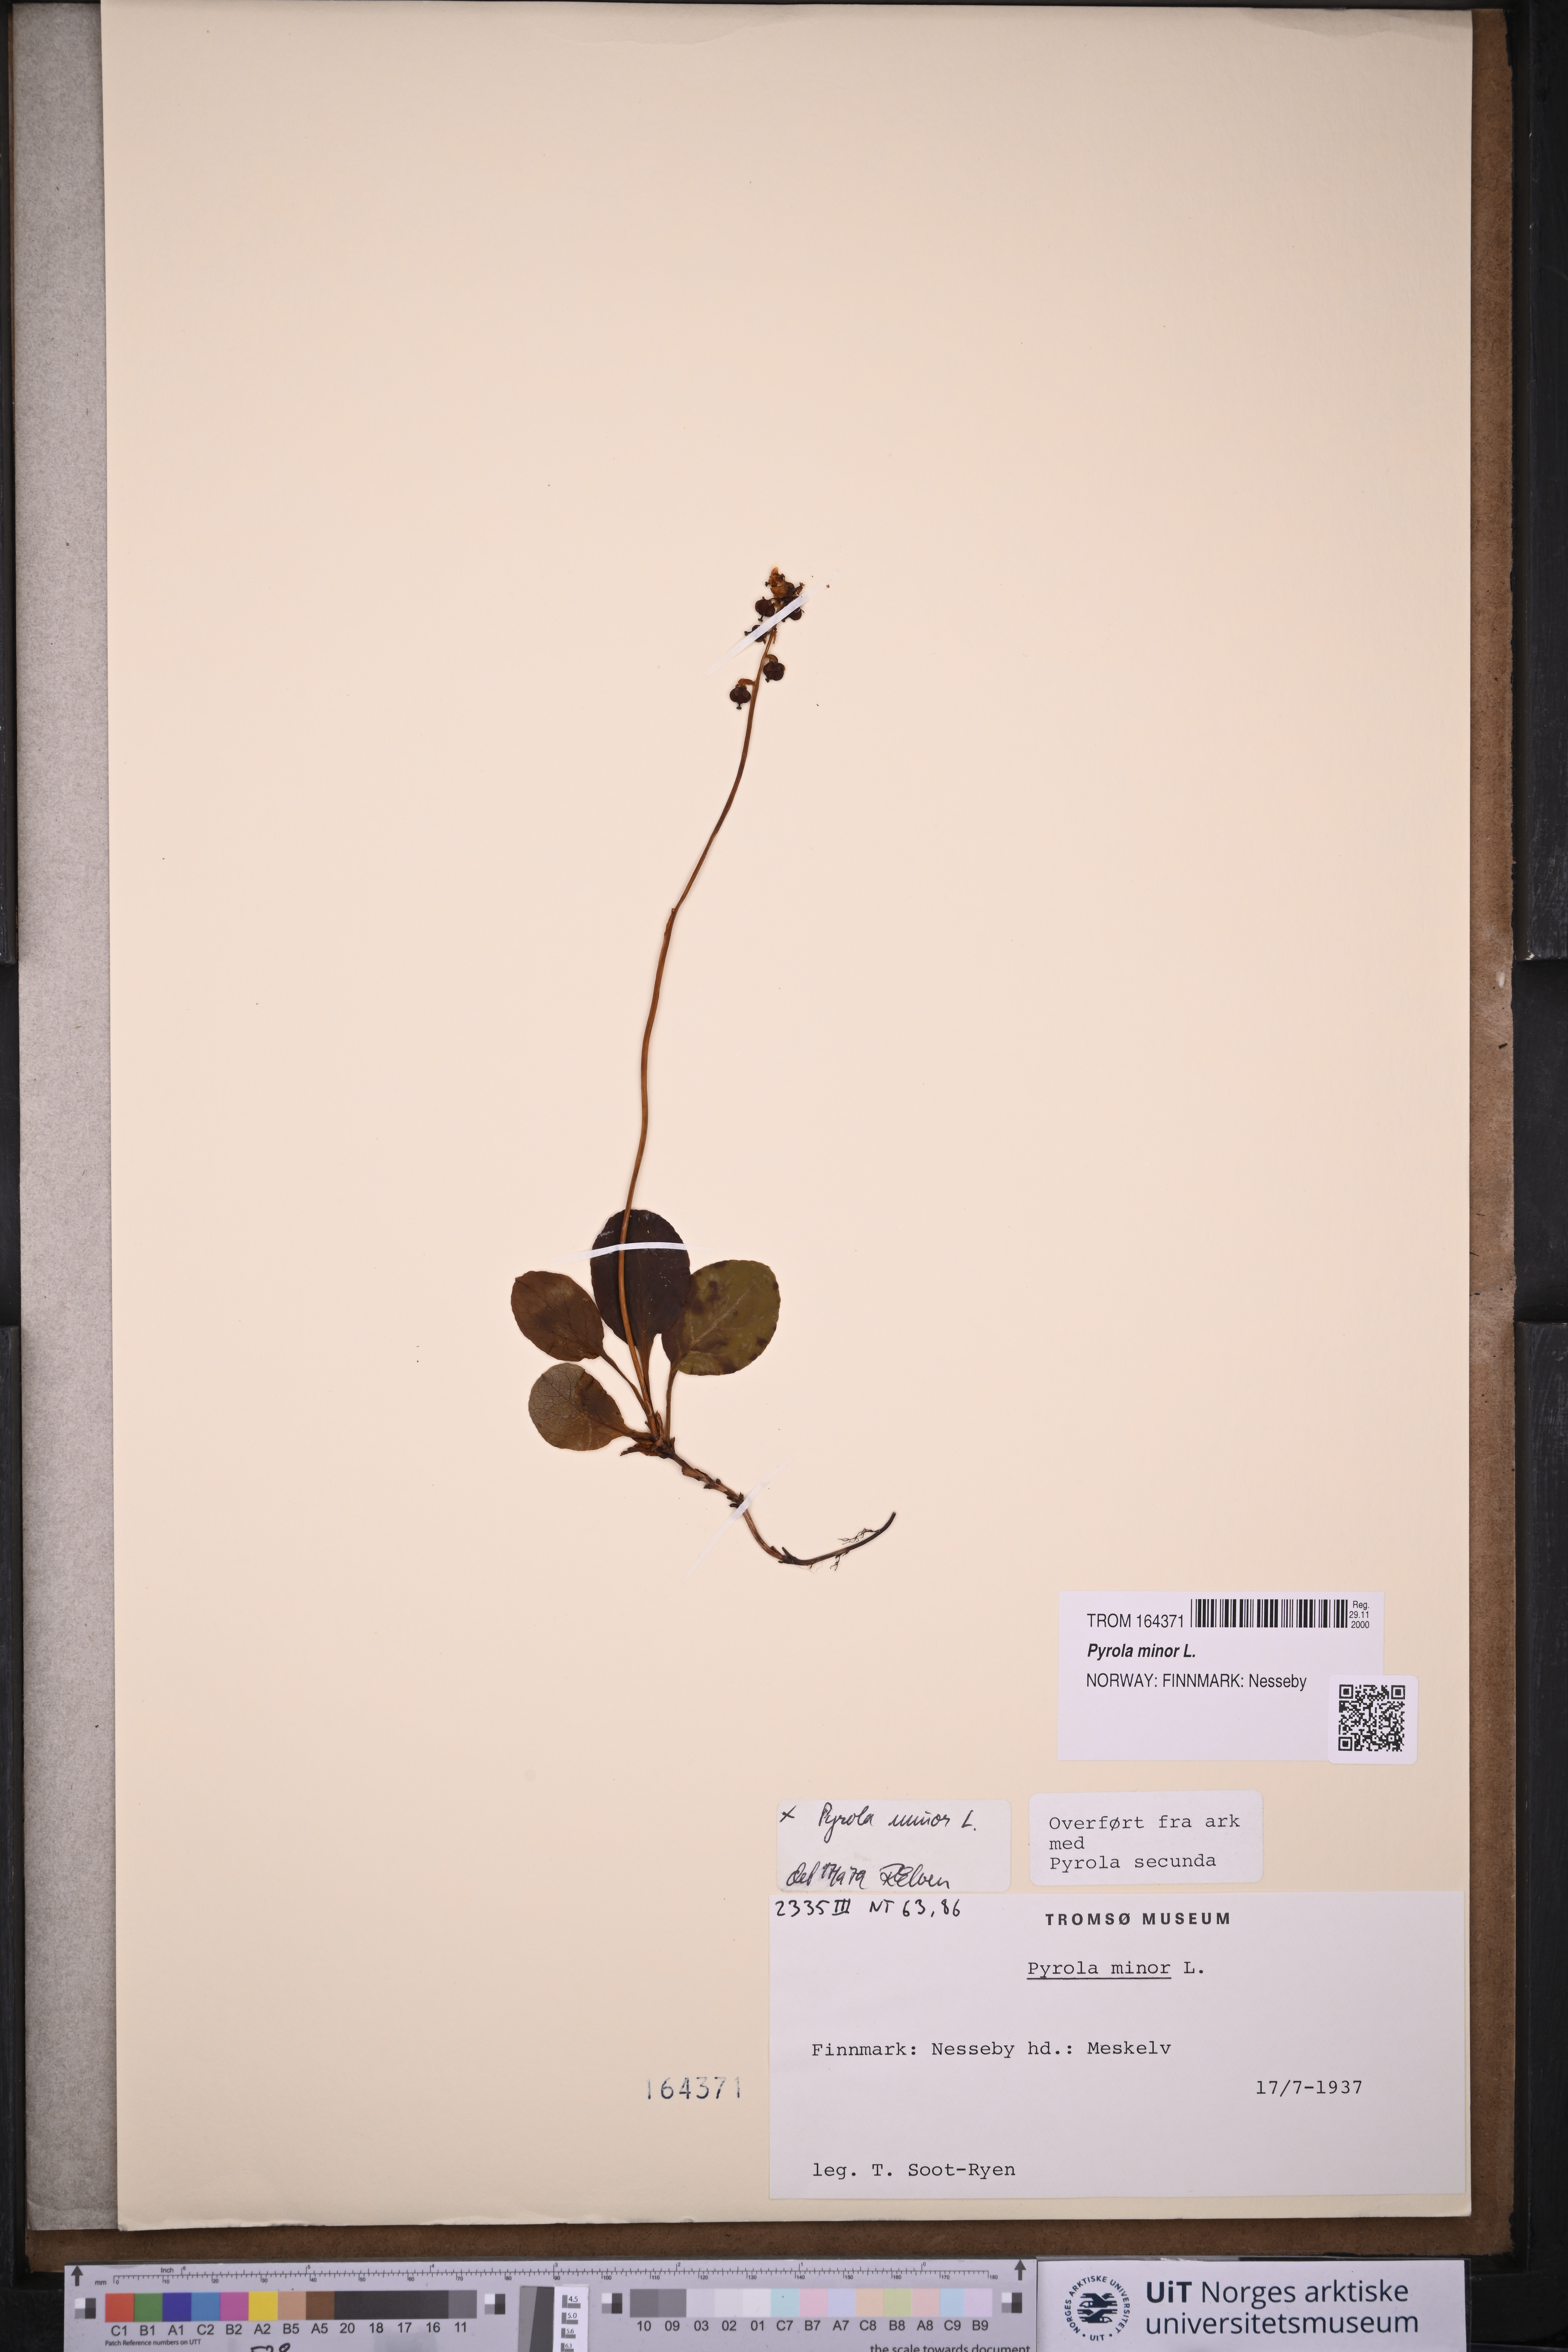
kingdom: Plantae
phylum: Tracheophyta
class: Magnoliopsida
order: Ericales
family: Ericaceae
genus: Pyrola
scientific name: Pyrola minor
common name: Common wintergreen
